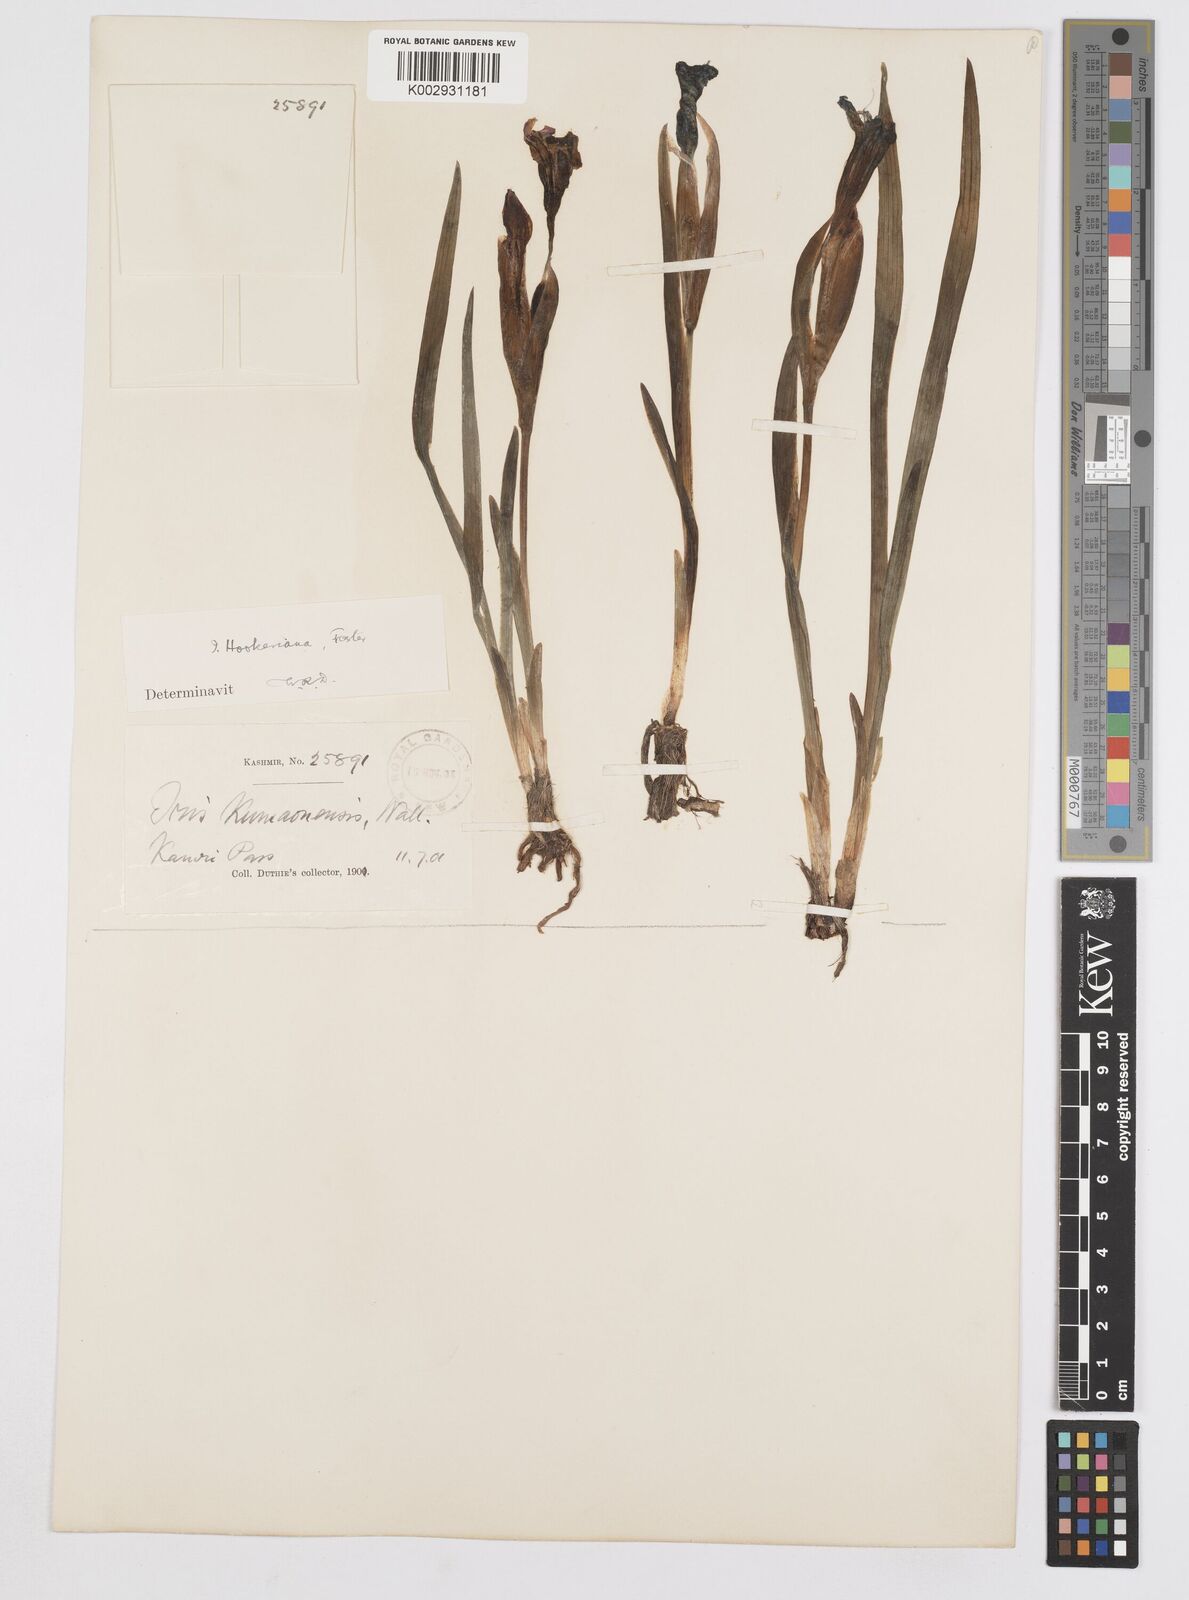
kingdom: Plantae
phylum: Tracheophyta
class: Liliopsida
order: Asparagales
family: Iridaceae
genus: Iris
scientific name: Iris hookeriana
